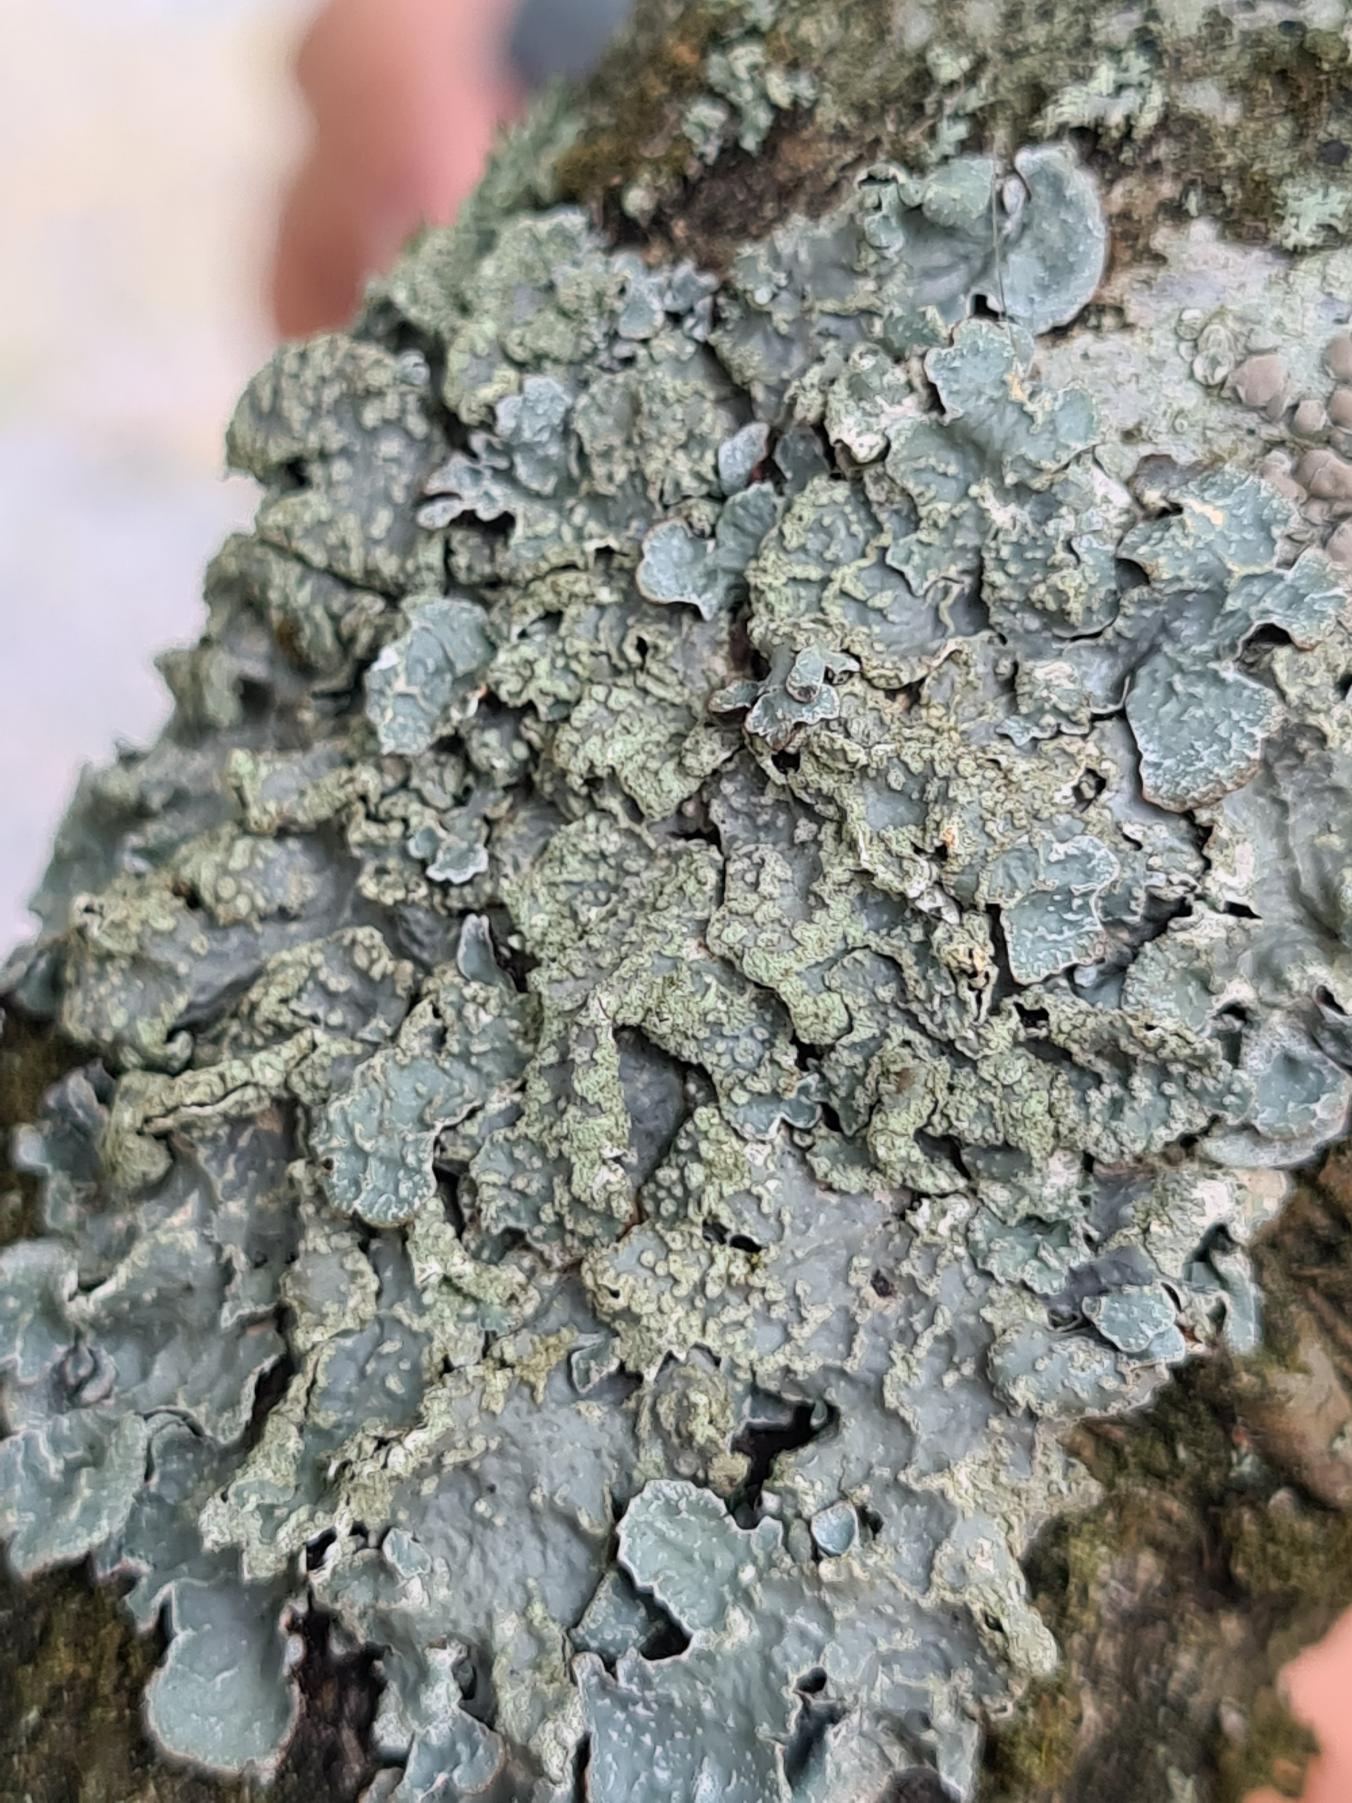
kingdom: Fungi
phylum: Ascomycota
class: Lecanoromycetes
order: Lecanorales
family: Parmeliaceae
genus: Parmelia
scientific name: Parmelia sulcata
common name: Rynket skållav
